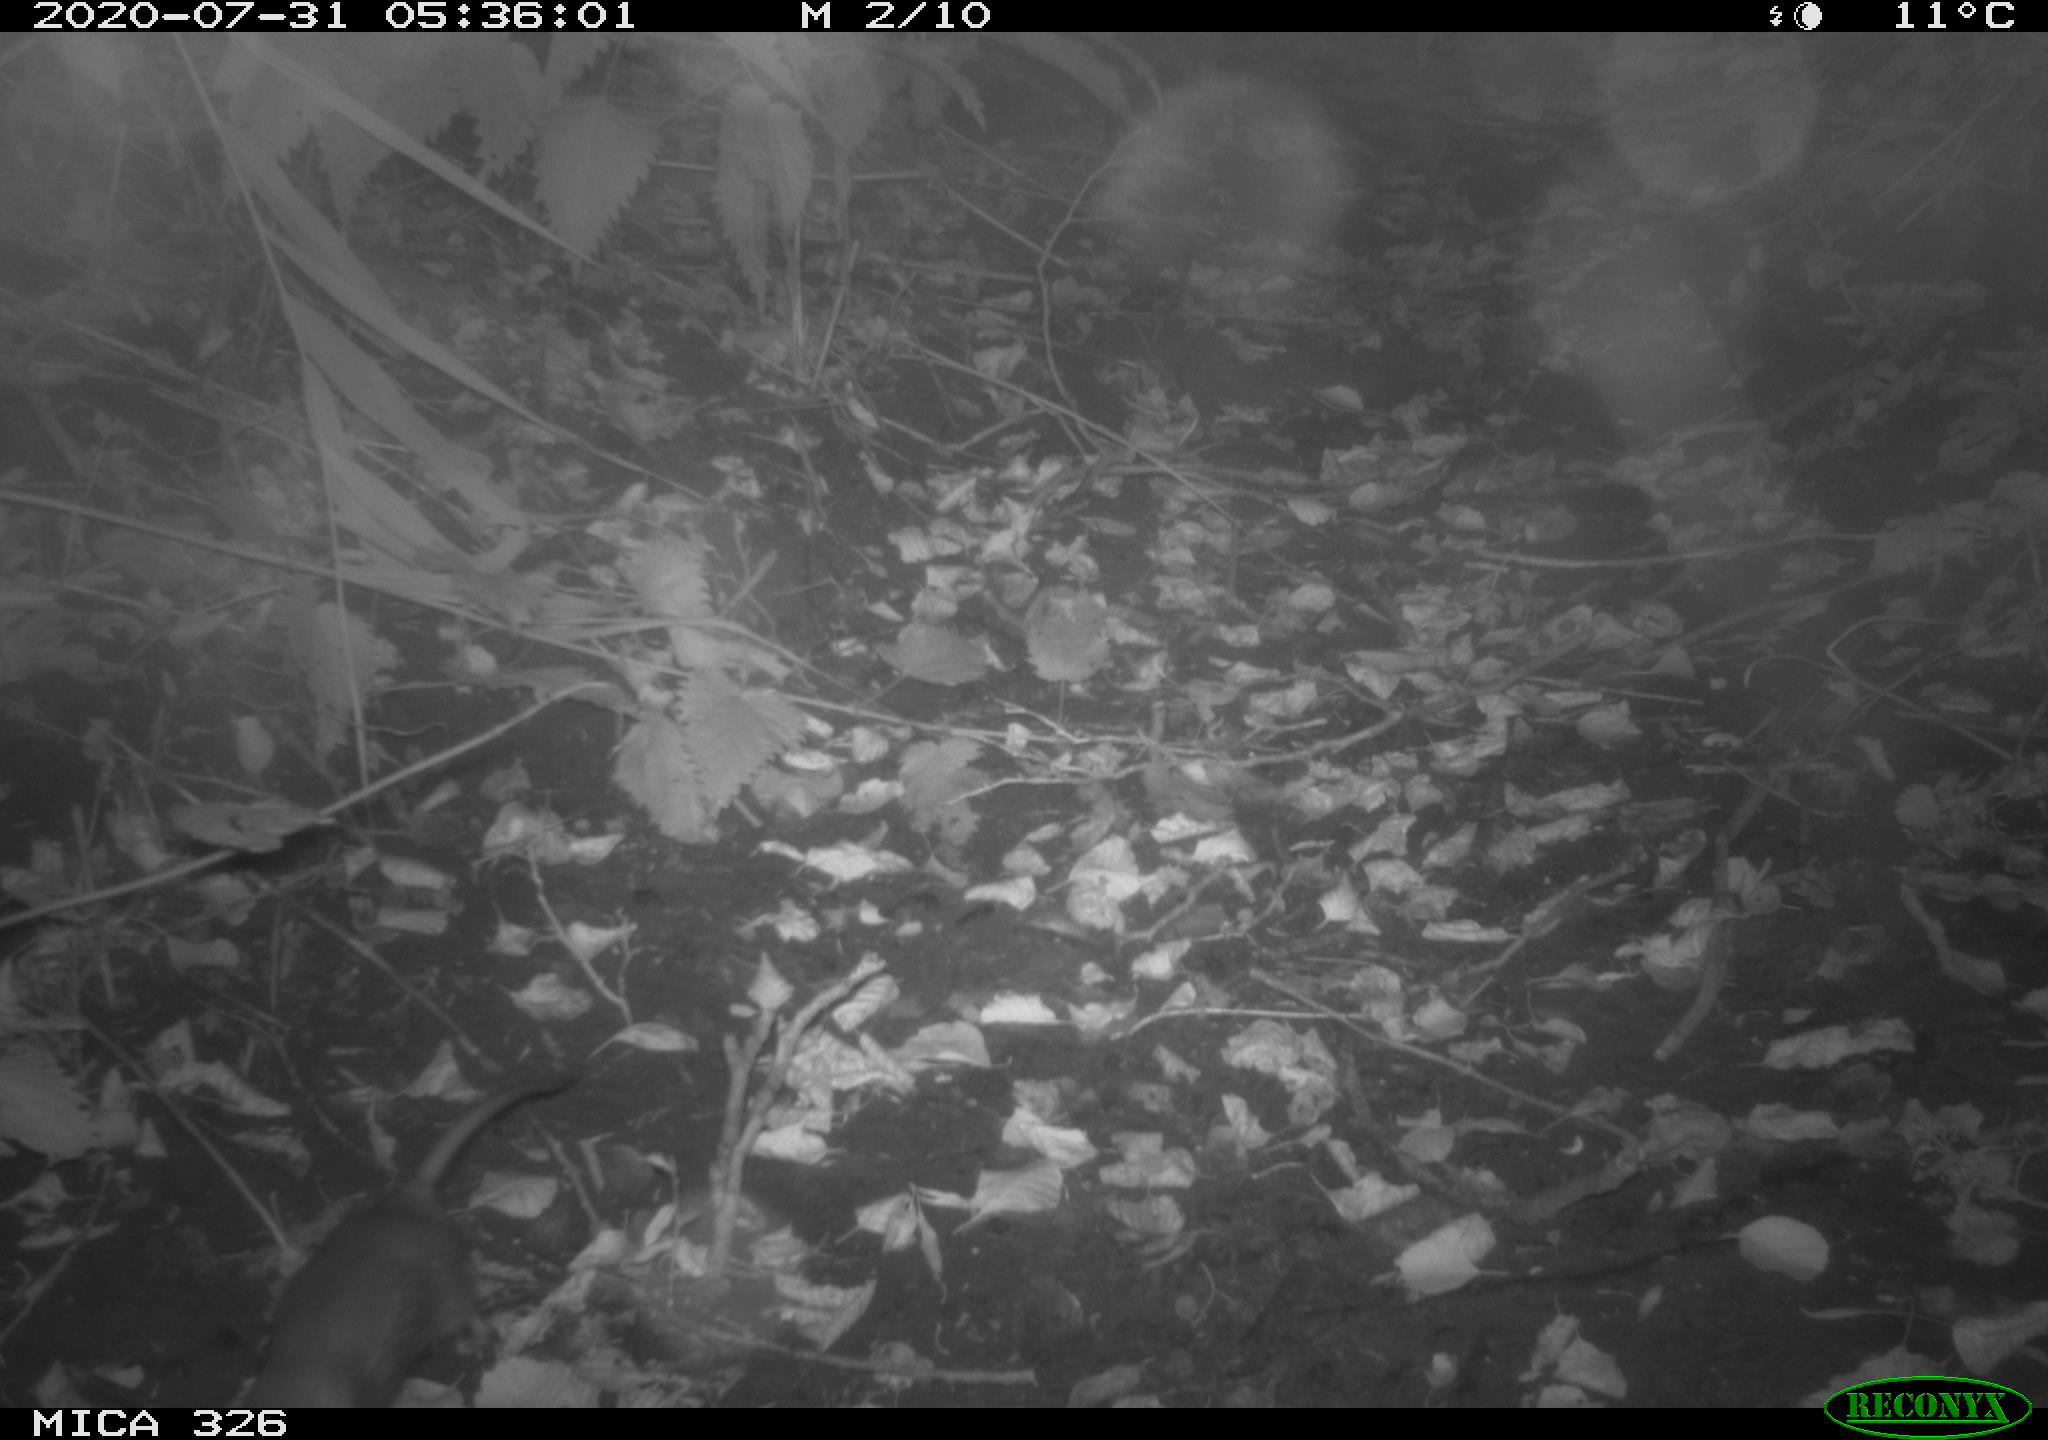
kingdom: Animalia
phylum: Chordata
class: Mammalia
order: Rodentia
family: Muridae
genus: Rattus
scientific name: Rattus norvegicus
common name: Brown rat
